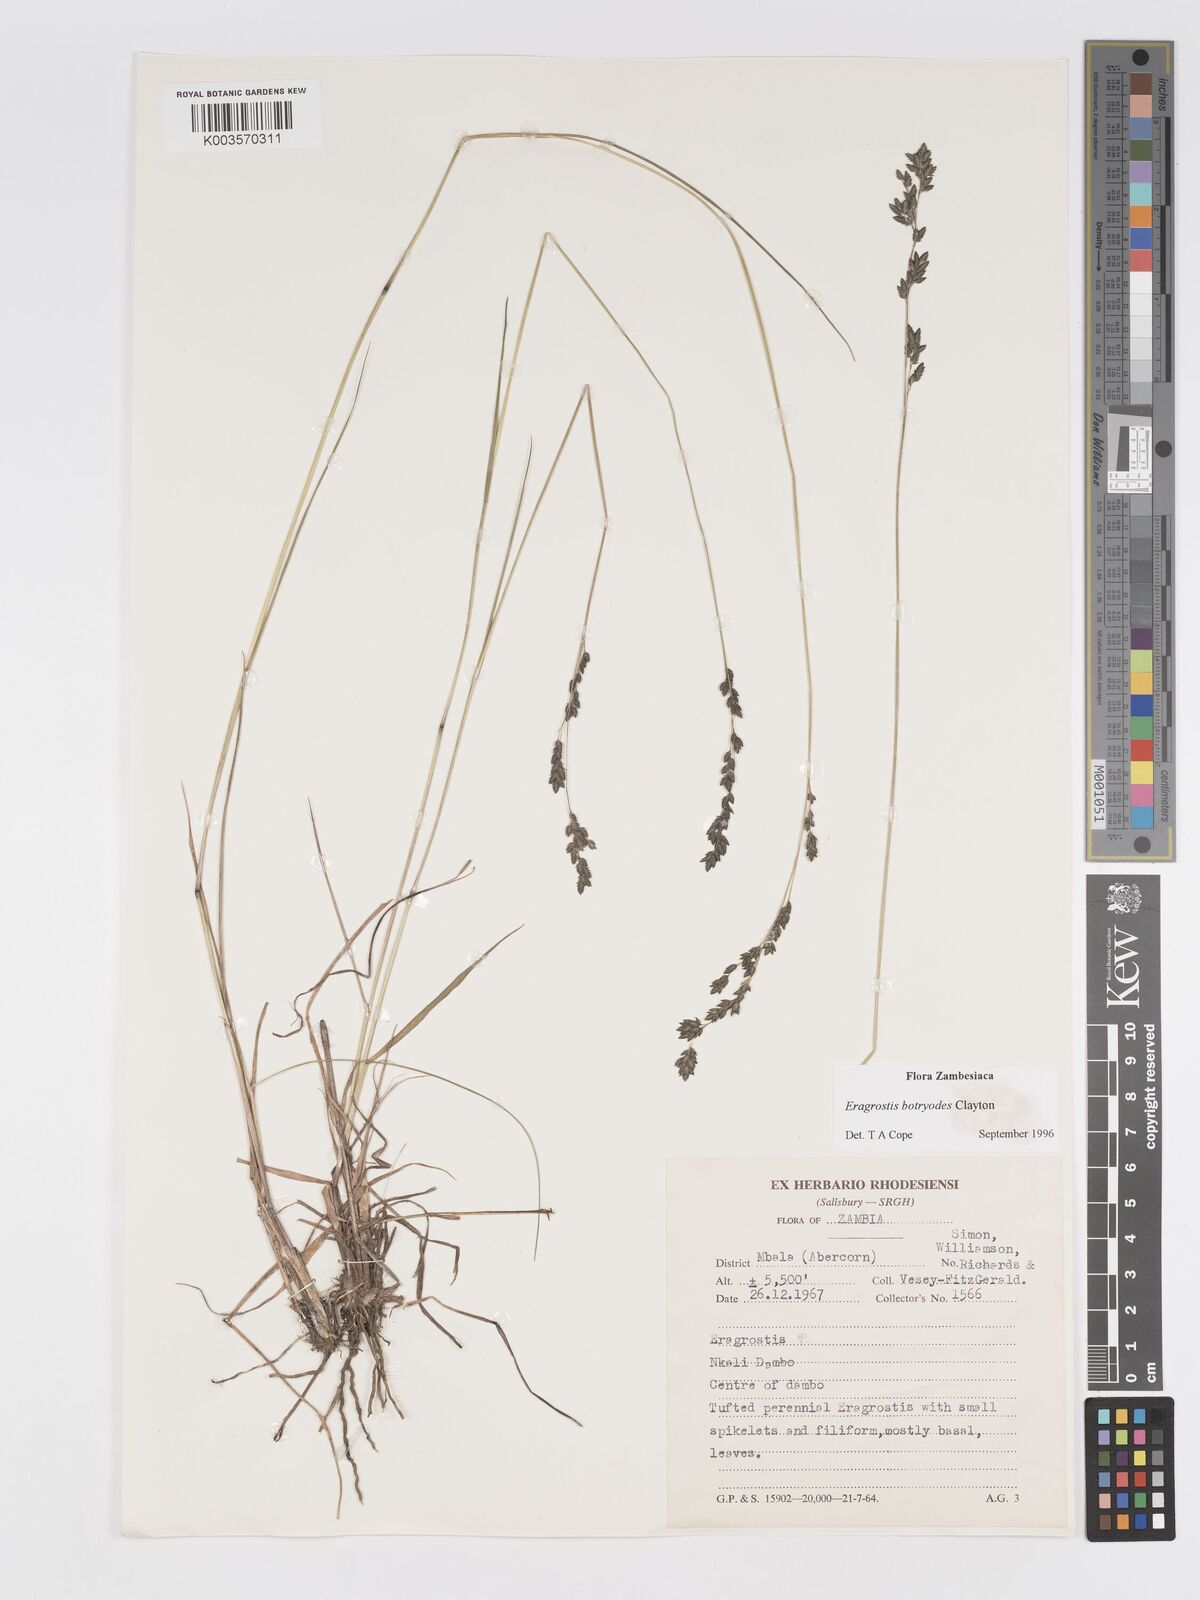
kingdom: Plantae
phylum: Tracheophyta
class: Liliopsida
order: Poales
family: Poaceae
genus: Eragrostis
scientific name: Eragrostis botryodes
